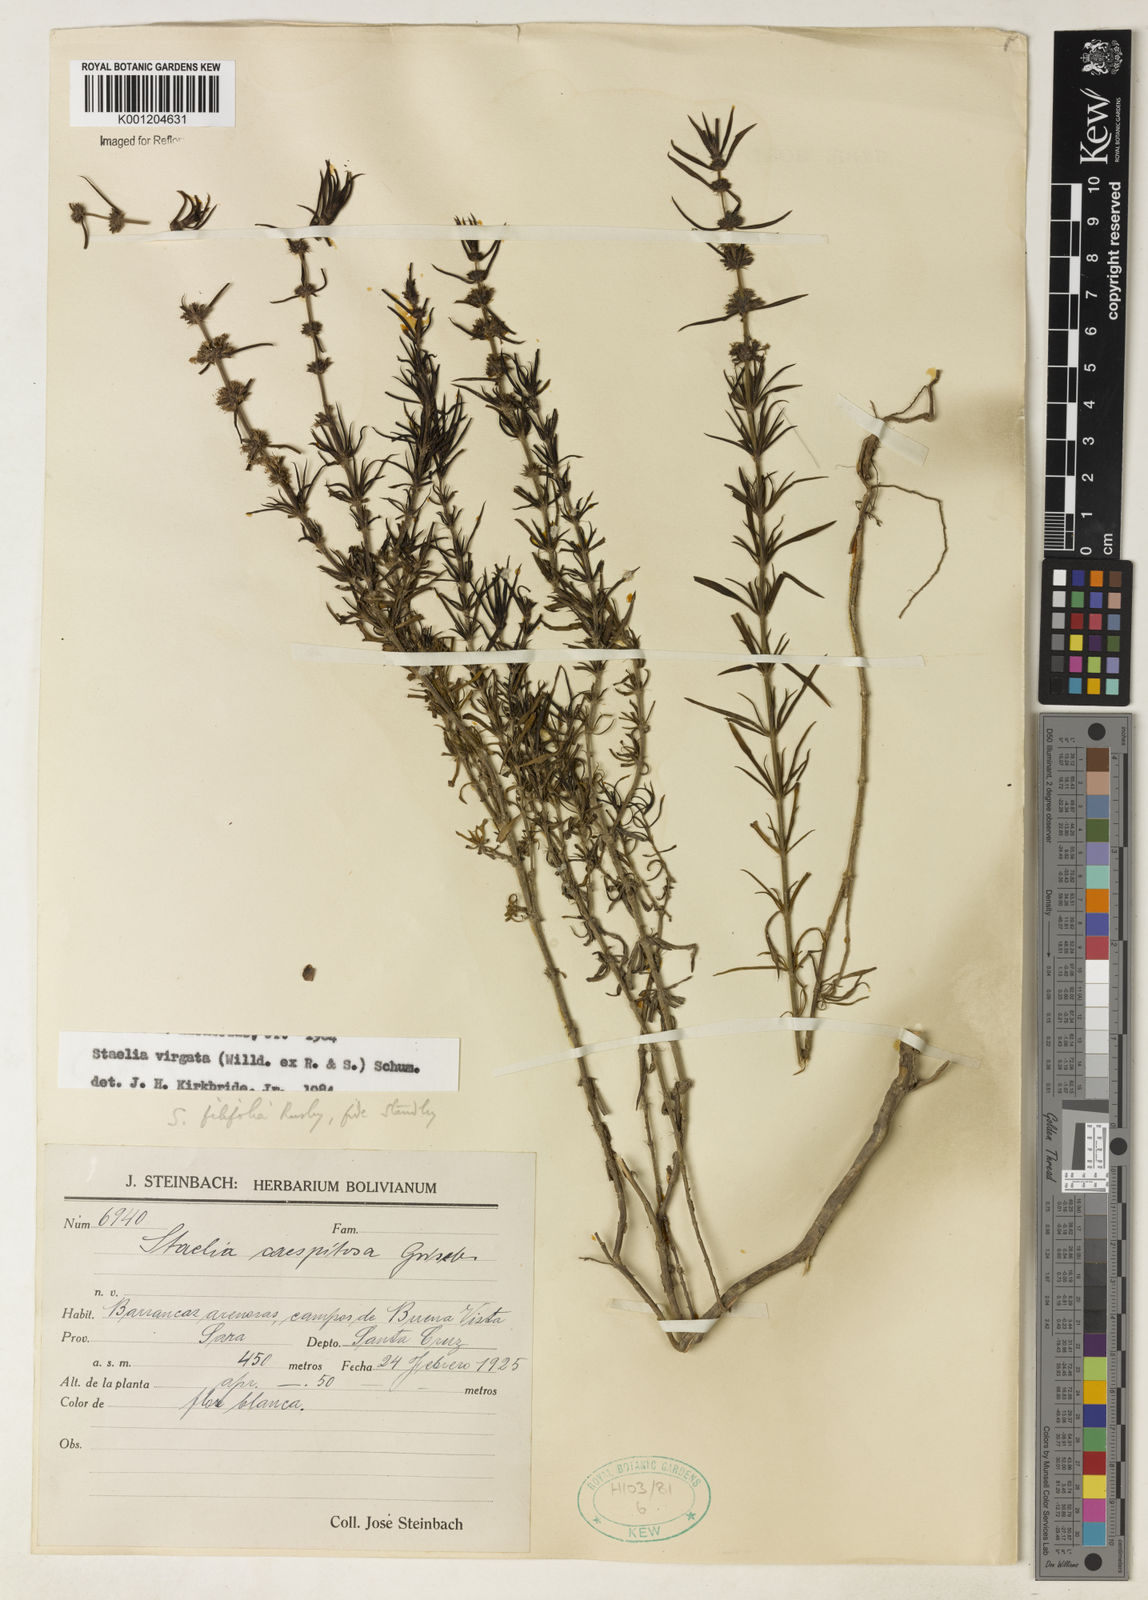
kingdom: Plantae
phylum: Tracheophyta
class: Magnoliopsida
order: Gentianales
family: Rubiaceae
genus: Staelia
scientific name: Staelia virgata
